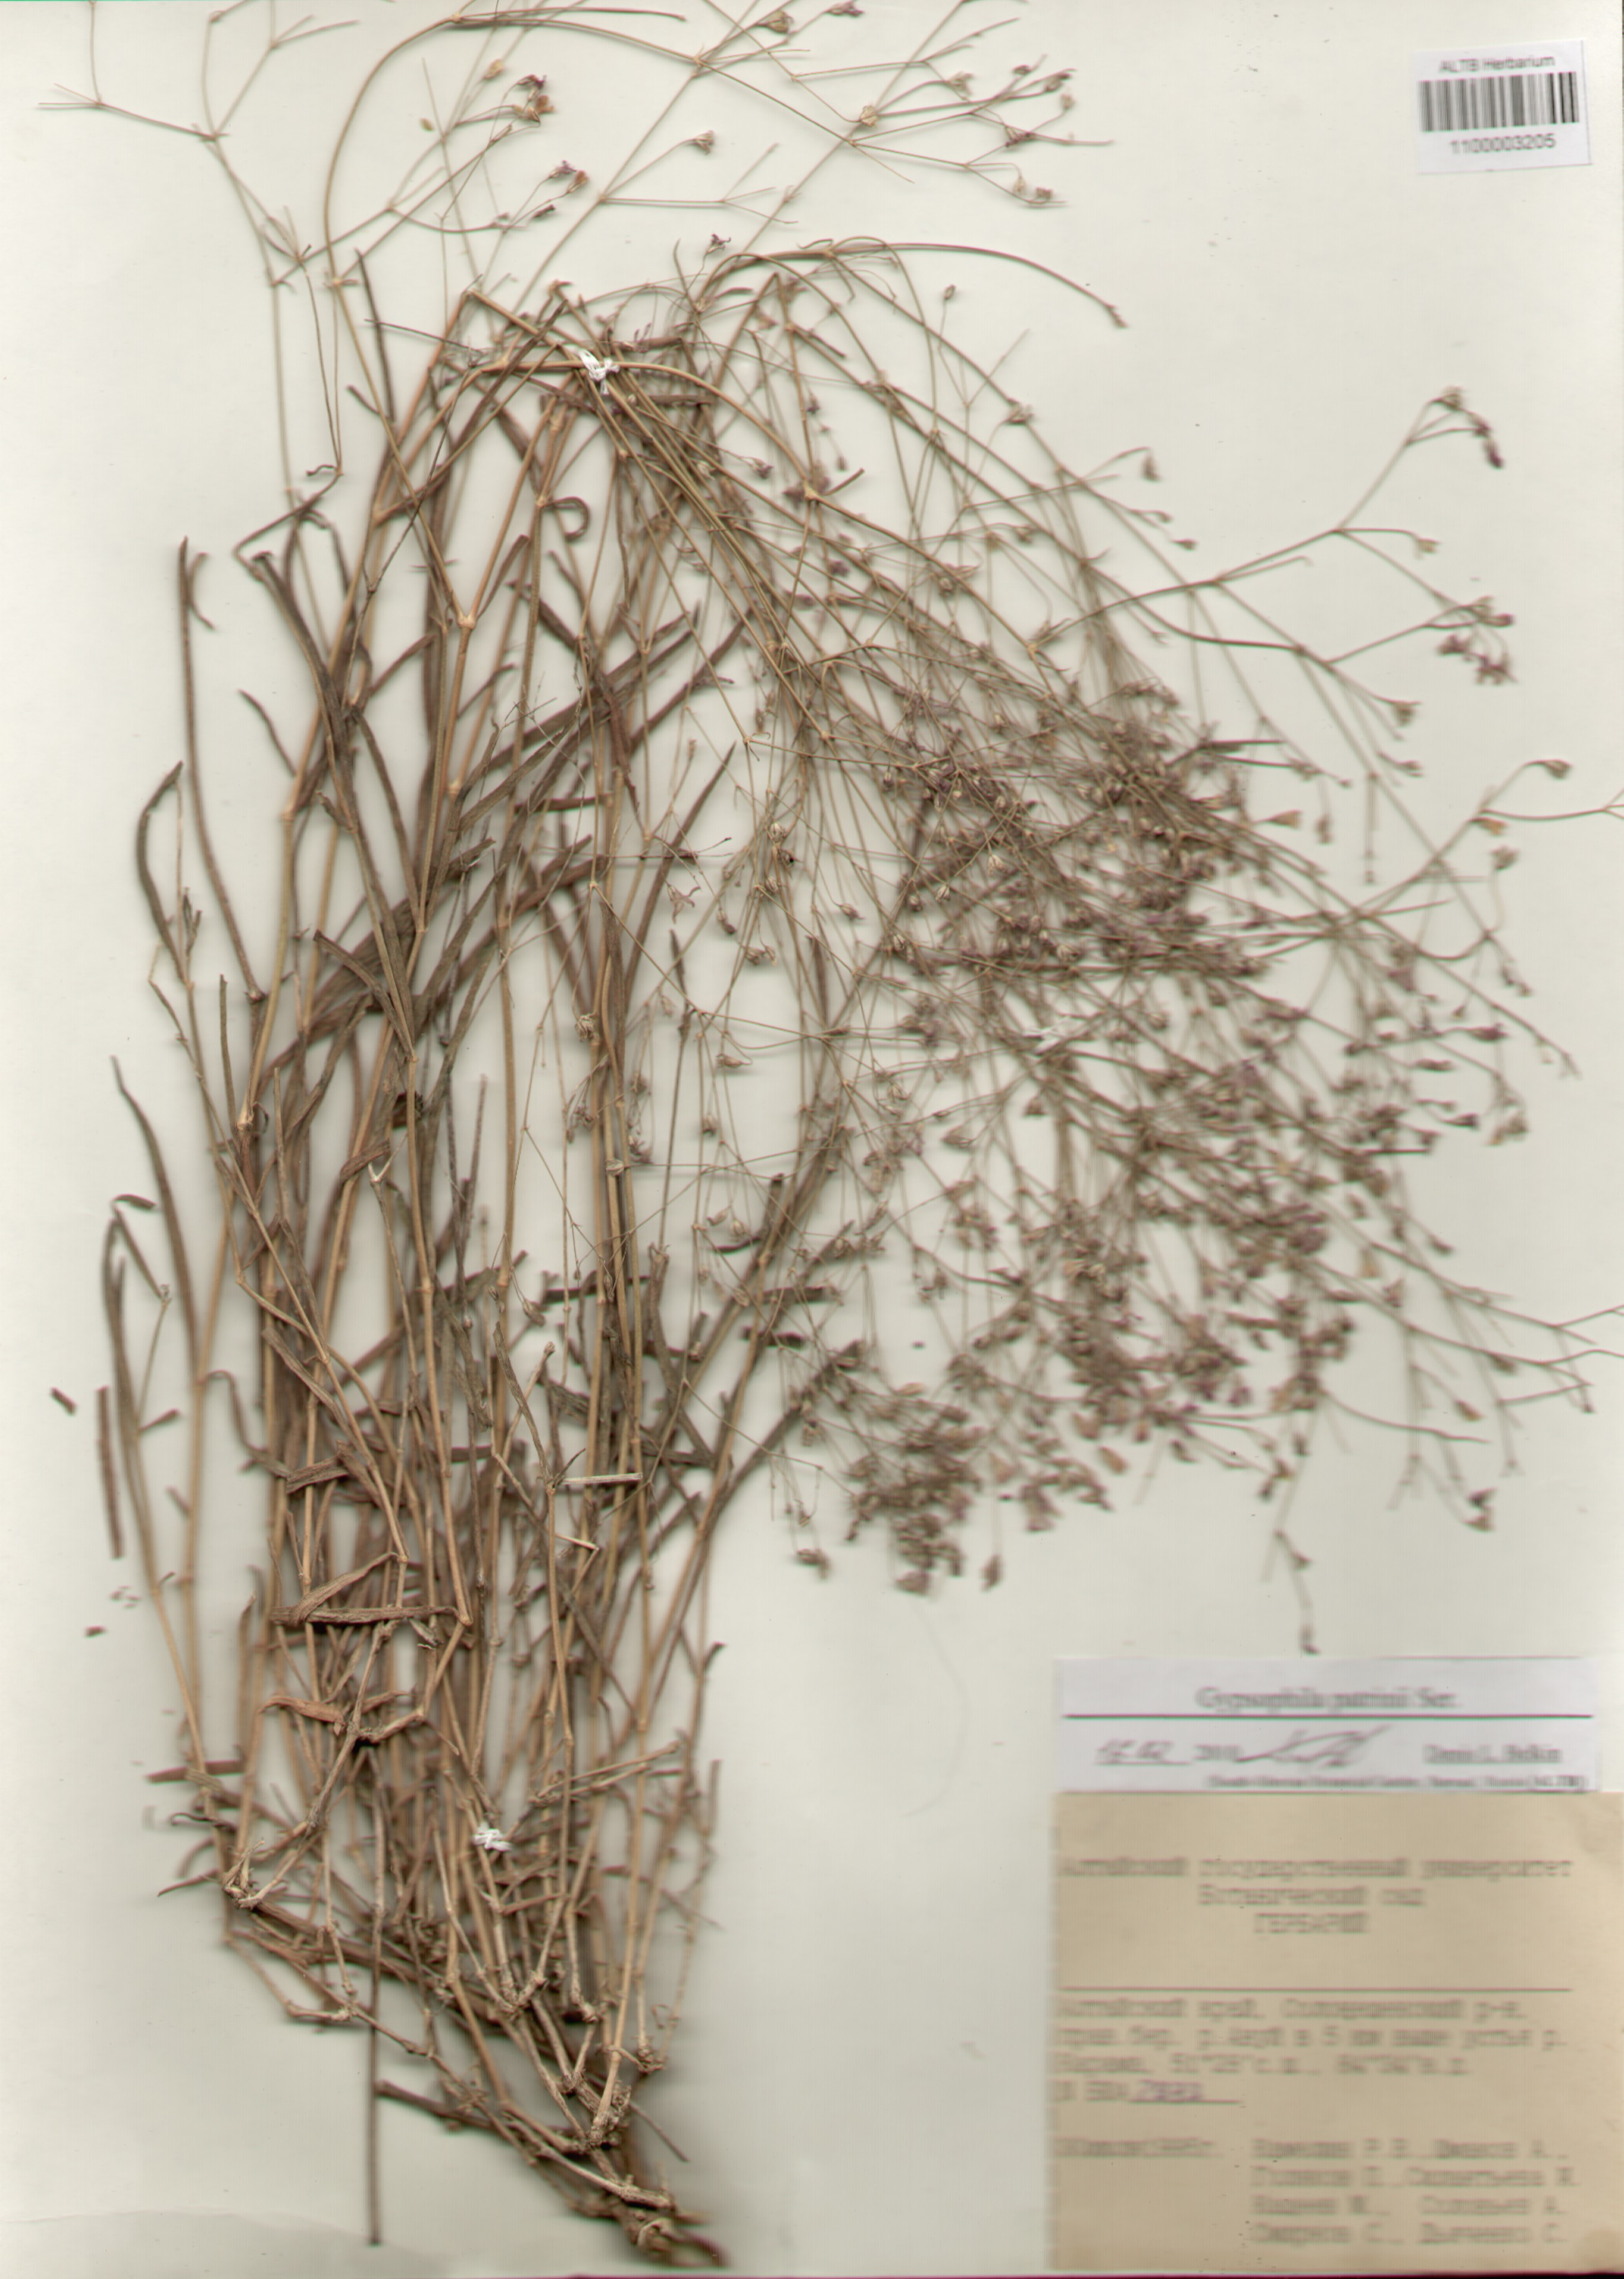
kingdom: Plantae
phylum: Tracheophyta
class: Magnoliopsida
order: Caryophyllales
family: Caryophyllaceae
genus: Gypsophila
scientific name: Gypsophila patrinii
